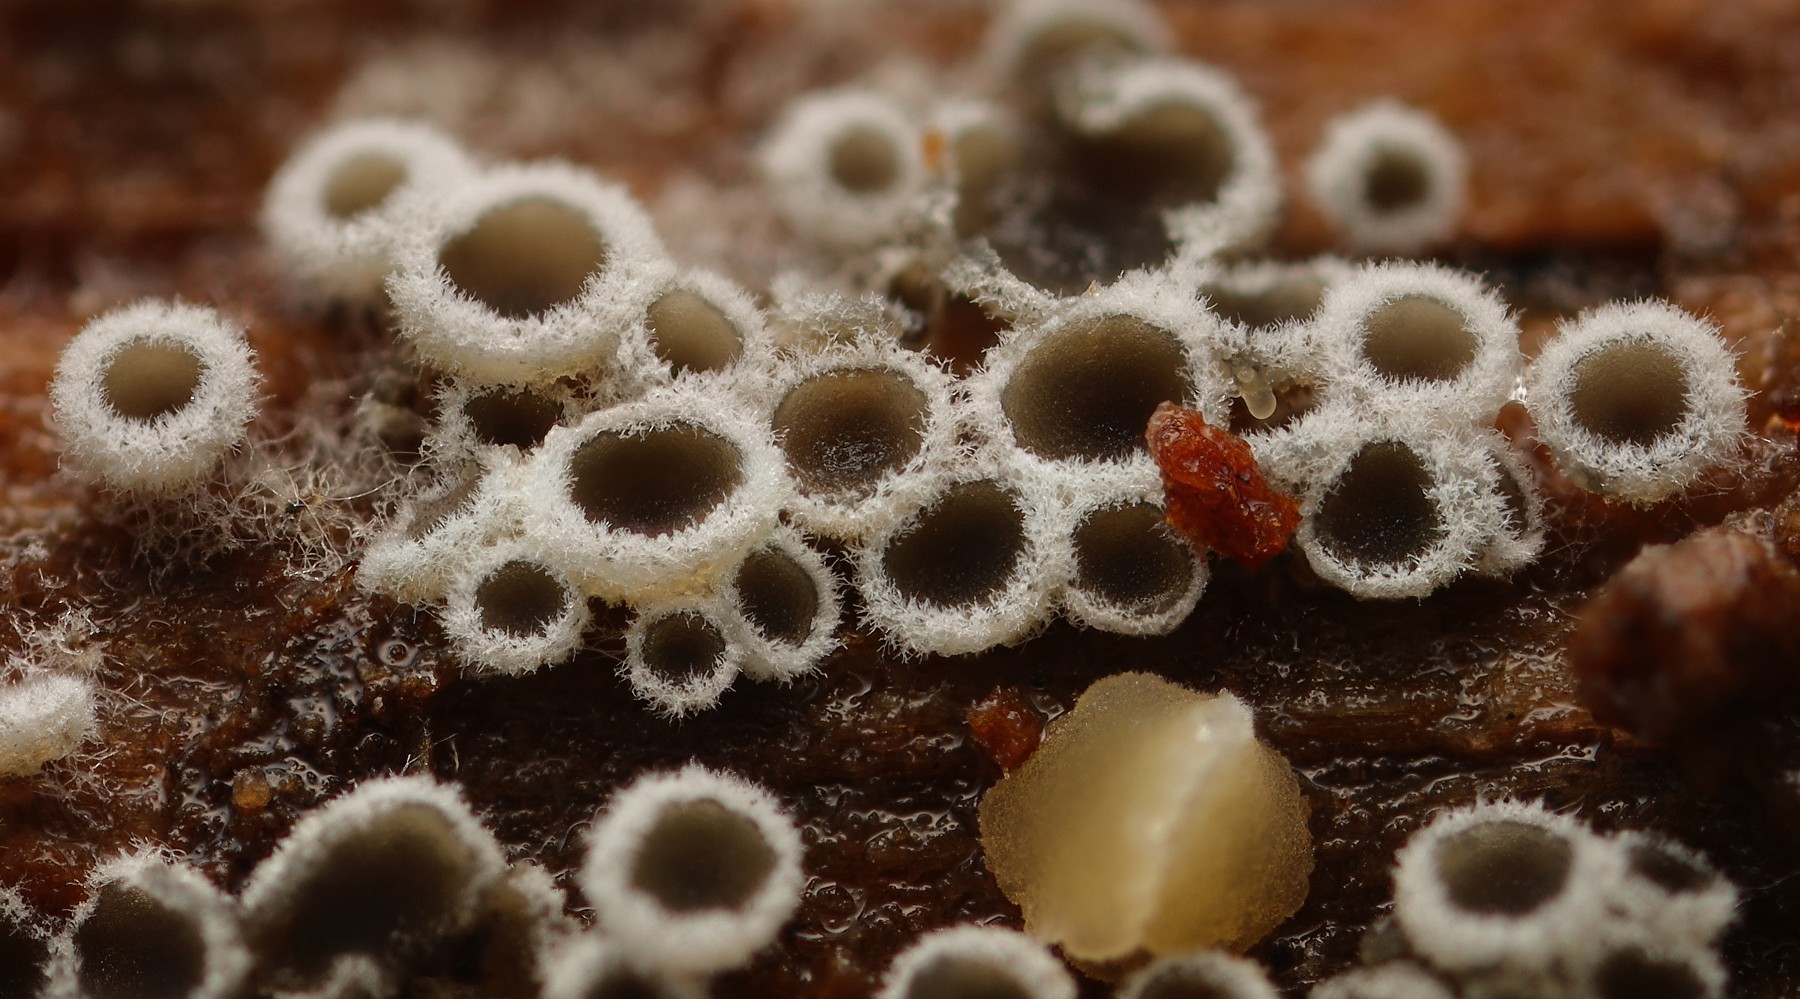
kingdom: Fungi
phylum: Ascomycota
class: Leotiomycetes
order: Helotiales
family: Arachnopezizaceae
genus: Eriopezia
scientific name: Eriopezia caesia
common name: ege-spindskive
